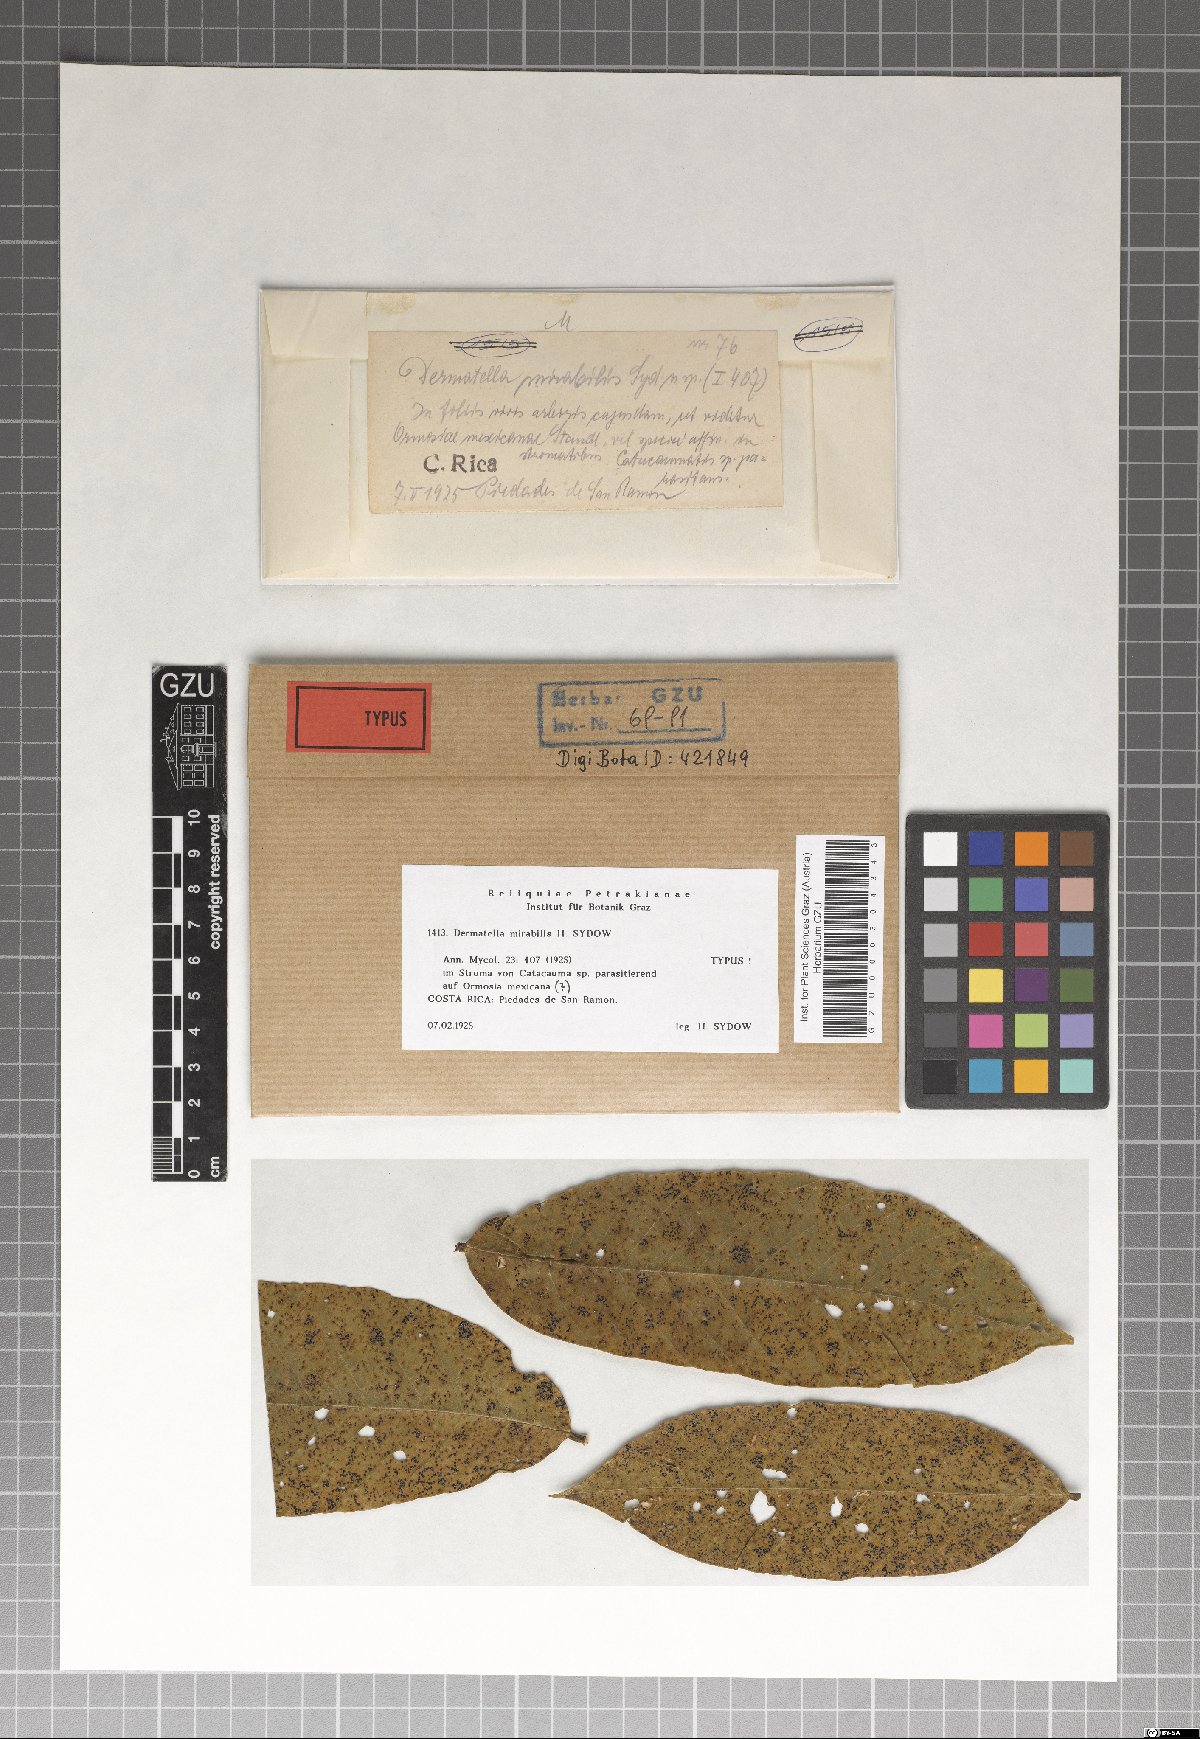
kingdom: Fungi
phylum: Ascomycota
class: Leotiomycetes
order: Helotiales
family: Dermateaceae
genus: Dermatella
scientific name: Dermatella mirabilis
